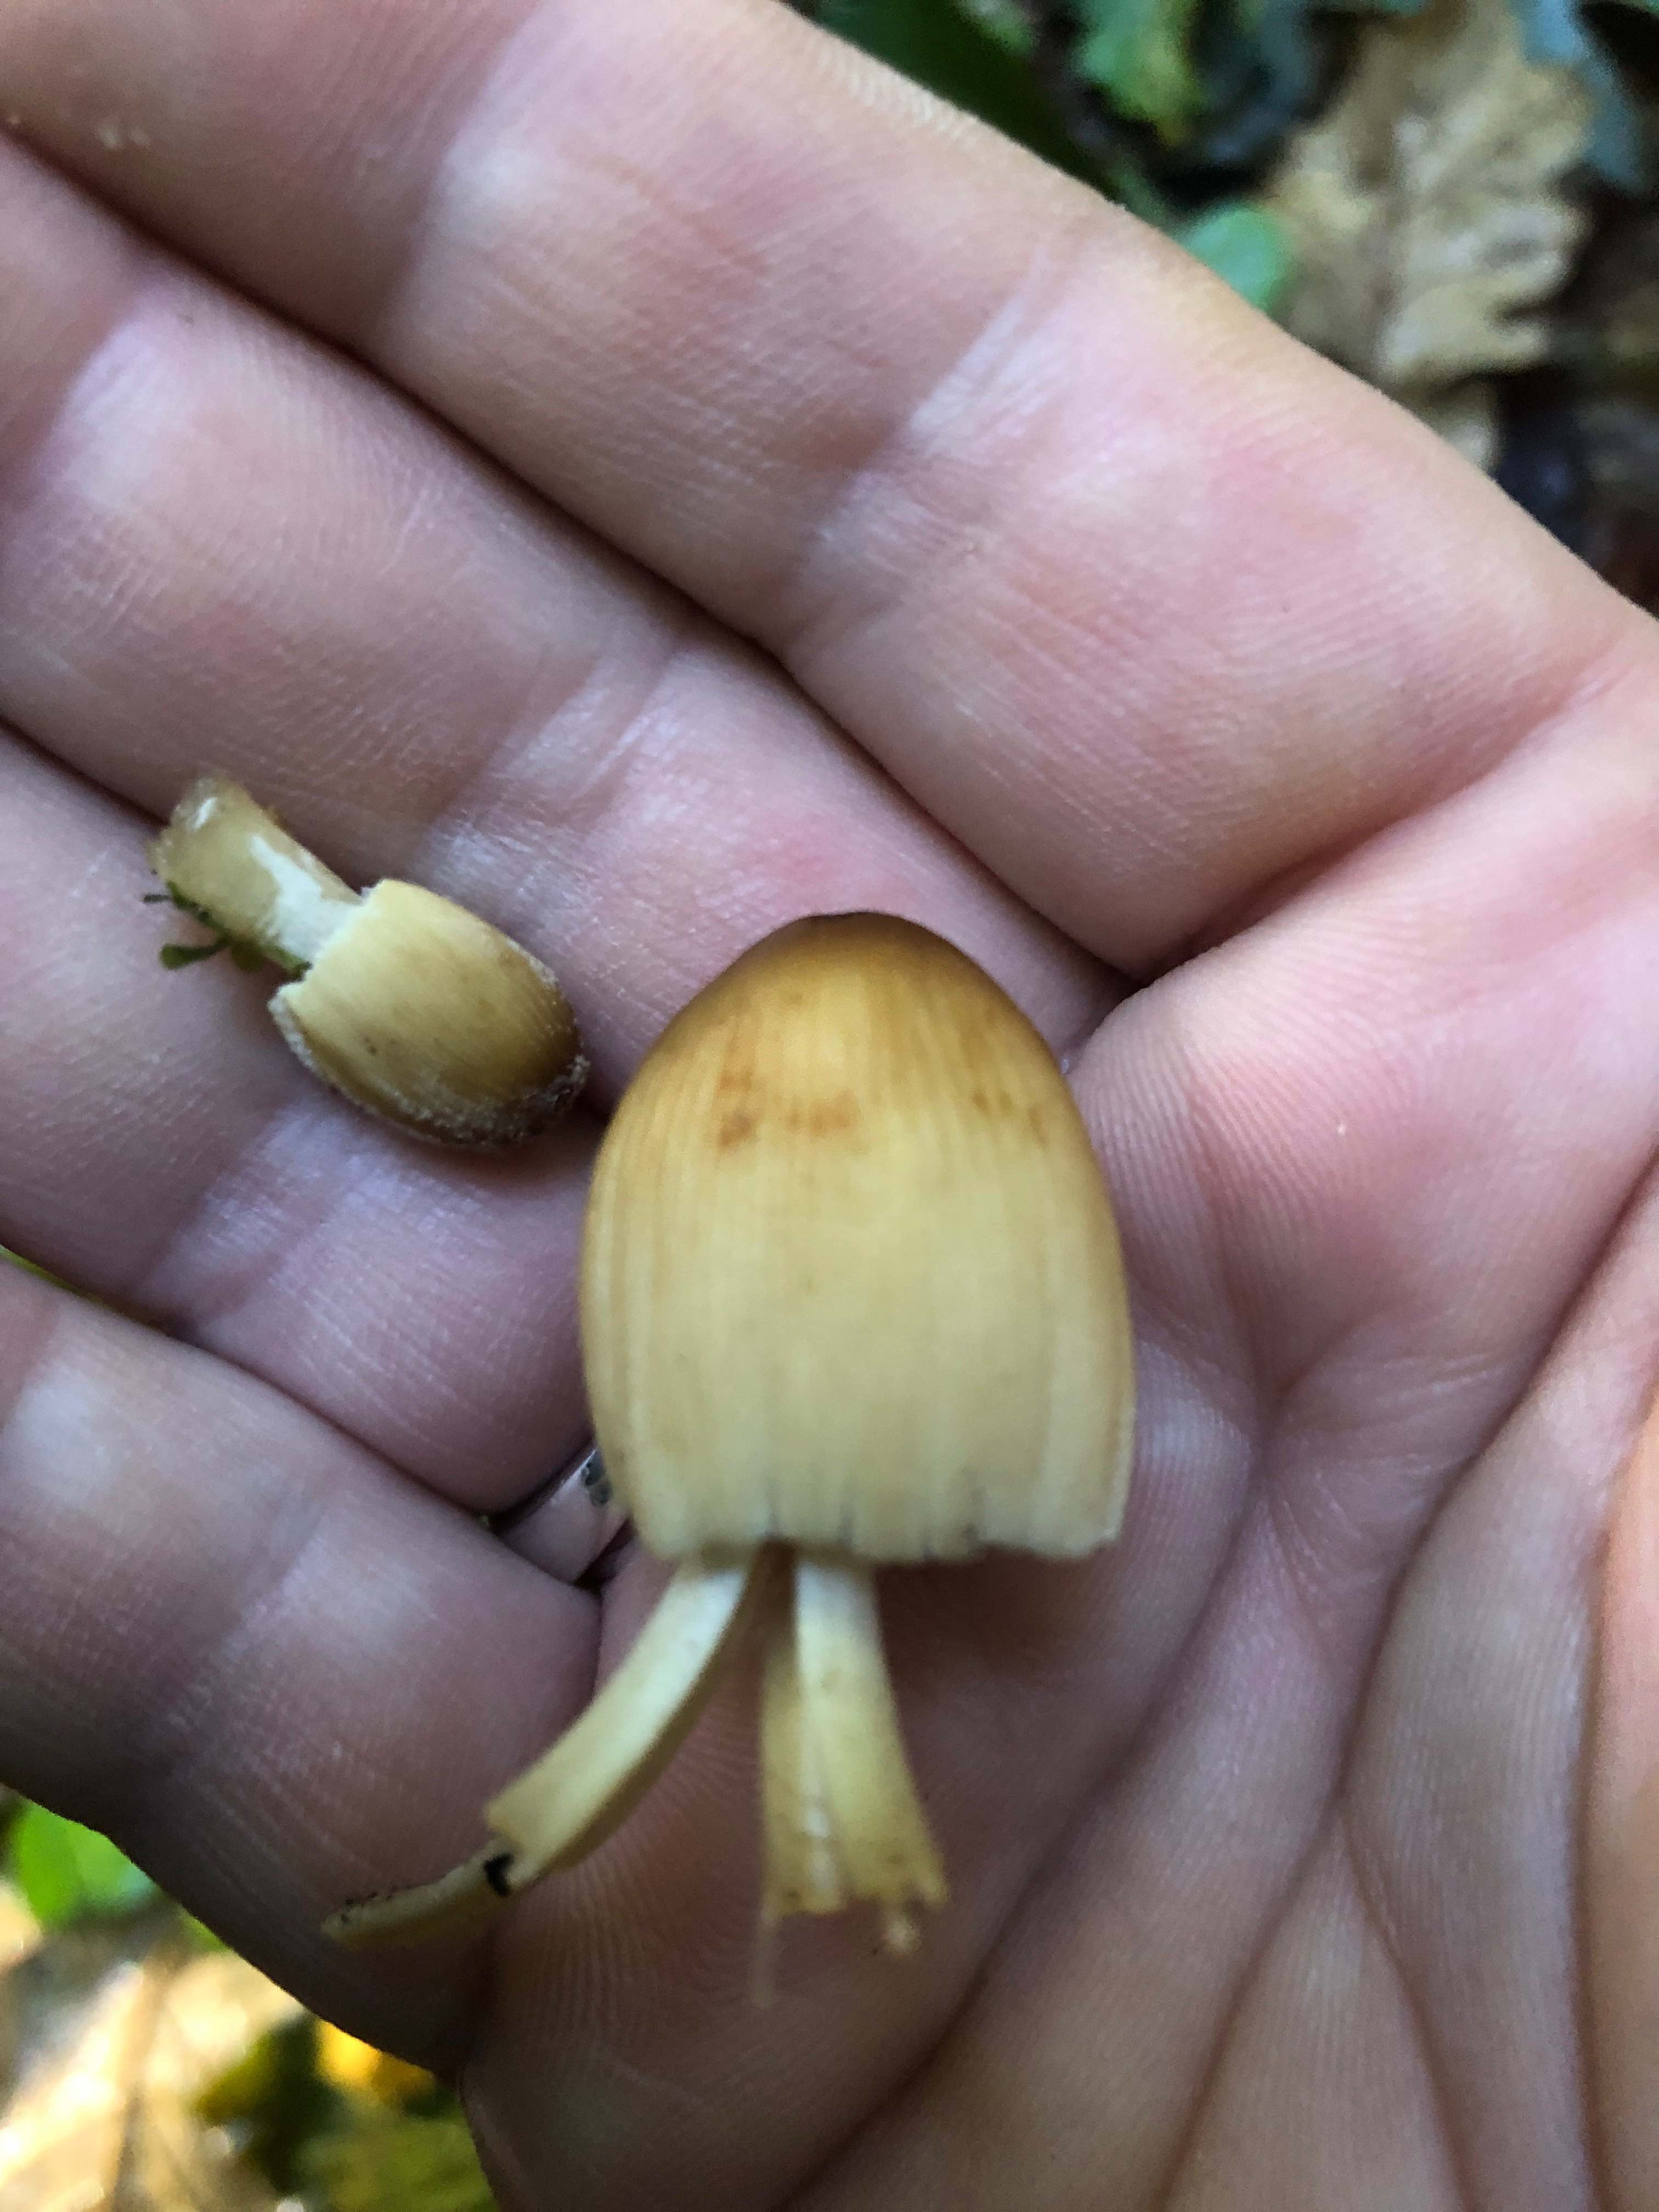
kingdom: Fungi
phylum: Basidiomycota
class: Agaricomycetes
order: Agaricales
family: Psathyrellaceae
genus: Coprinellus
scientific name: Coprinellus micaceus
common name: glimmer-blækhat
